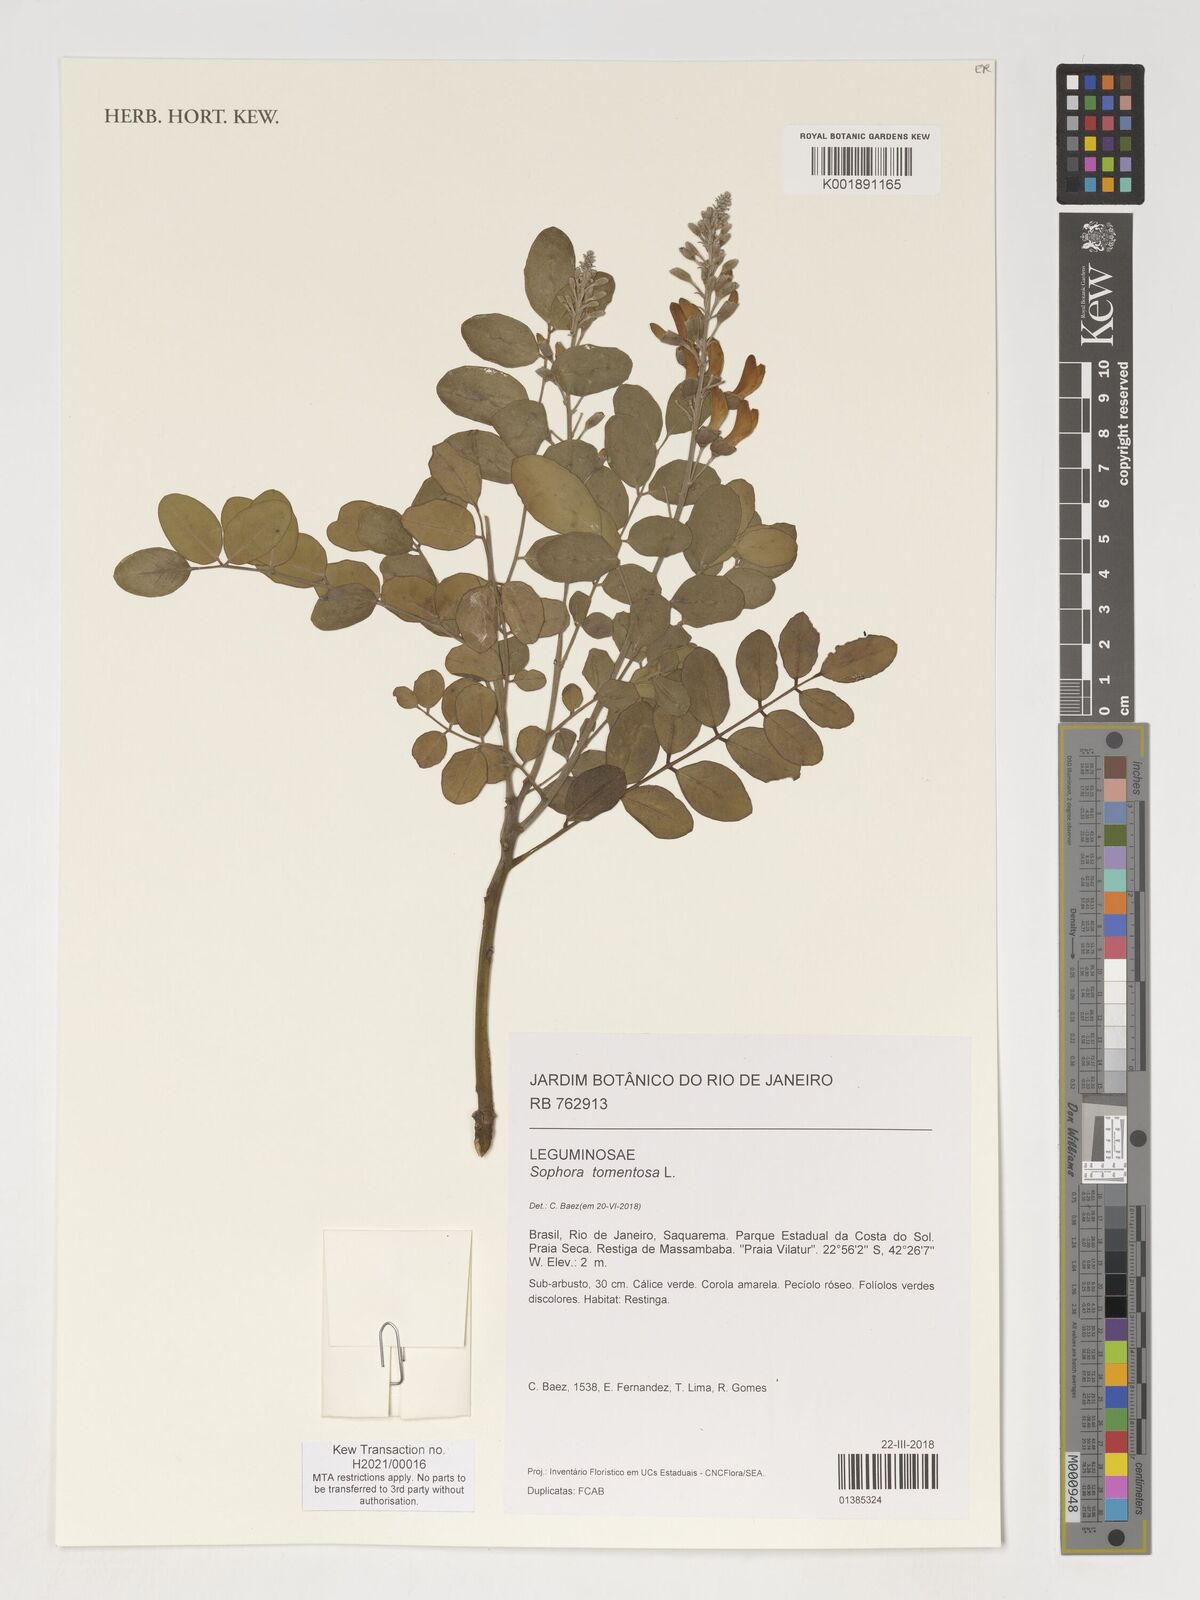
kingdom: Plantae
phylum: Tracheophyta
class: Magnoliopsida
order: Fabales
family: Fabaceae
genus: Sophora
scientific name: Sophora tomentosa
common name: Yellow necklacepod
